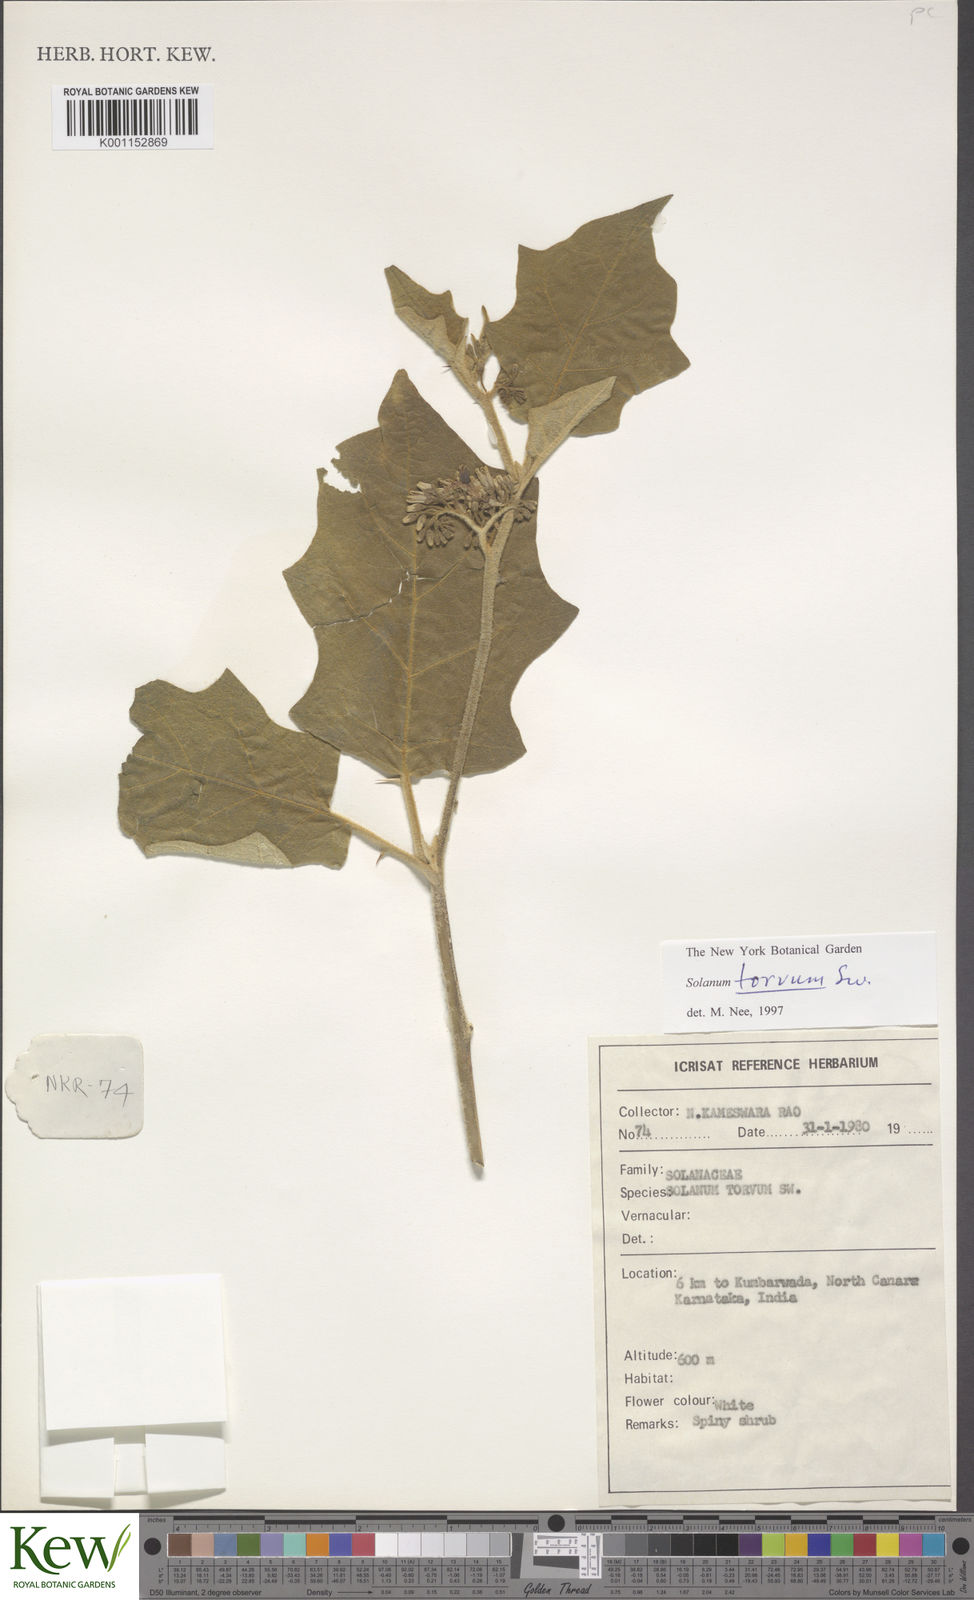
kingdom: Plantae
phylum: Tracheophyta
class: Magnoliopsida
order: Solanales
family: Solanaceae
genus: Solanum
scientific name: Solanum torvum
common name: Turkey berry
